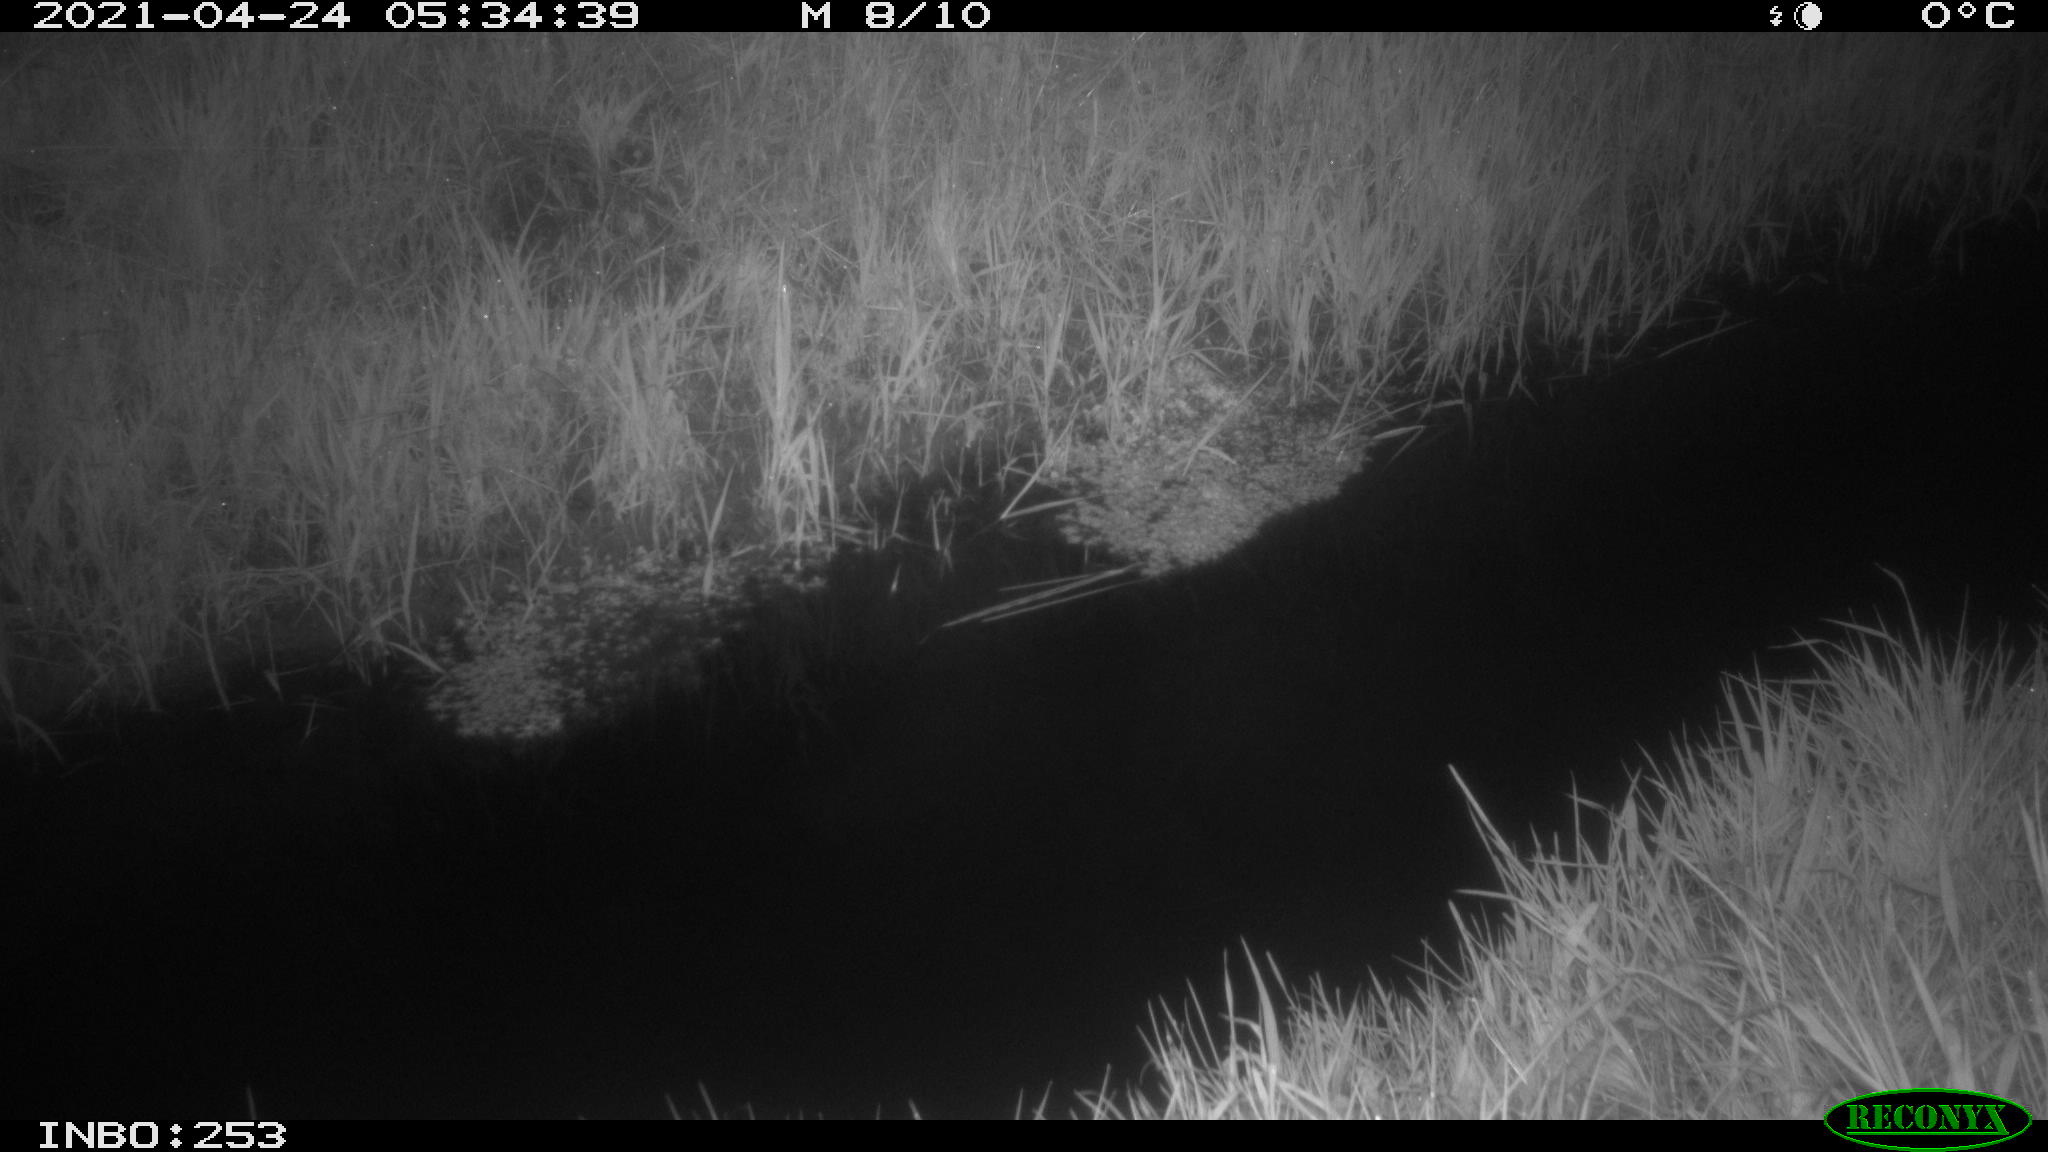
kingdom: Animalia
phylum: Chordata
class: Aves
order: Anseriformes
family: Anatidae
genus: Anas
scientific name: Anas platyrhynchos
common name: Mallard
